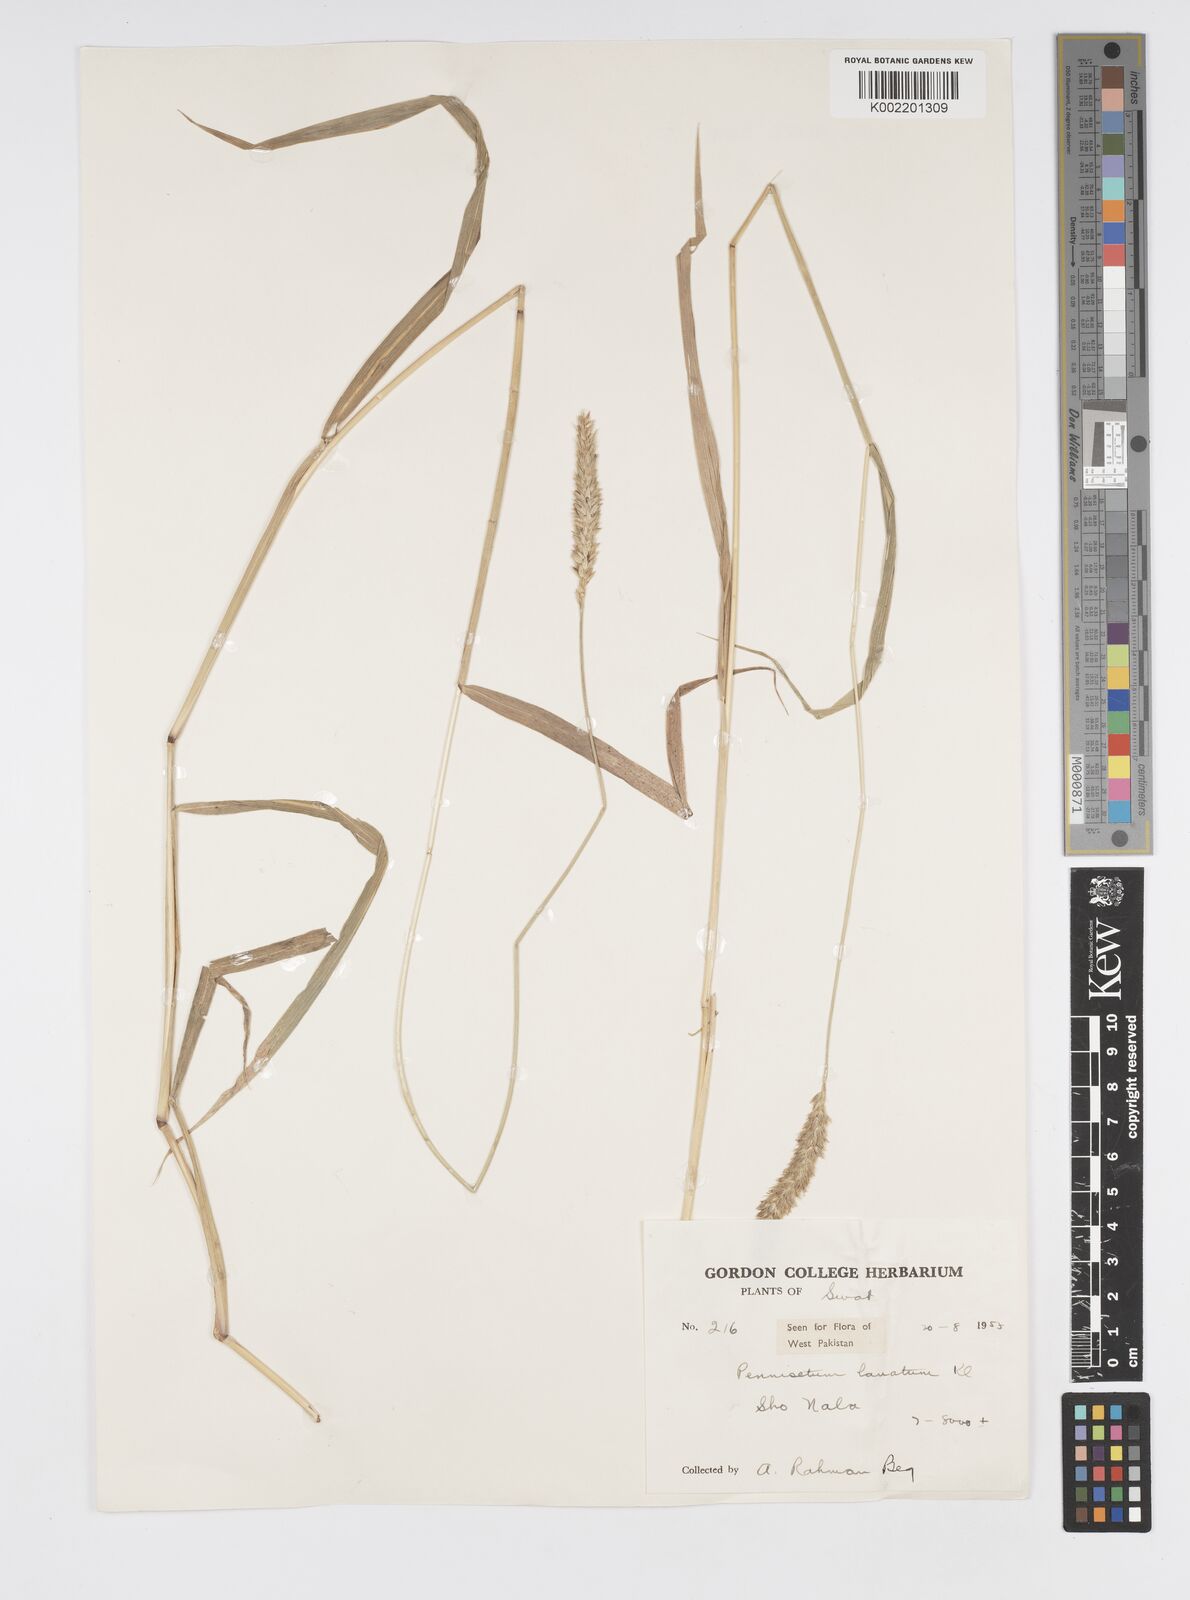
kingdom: Plantae
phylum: Tracheophyta
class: Liliopsida
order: Poales
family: Poaceae
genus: Cenchrus
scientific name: Cenchrus lanatus
